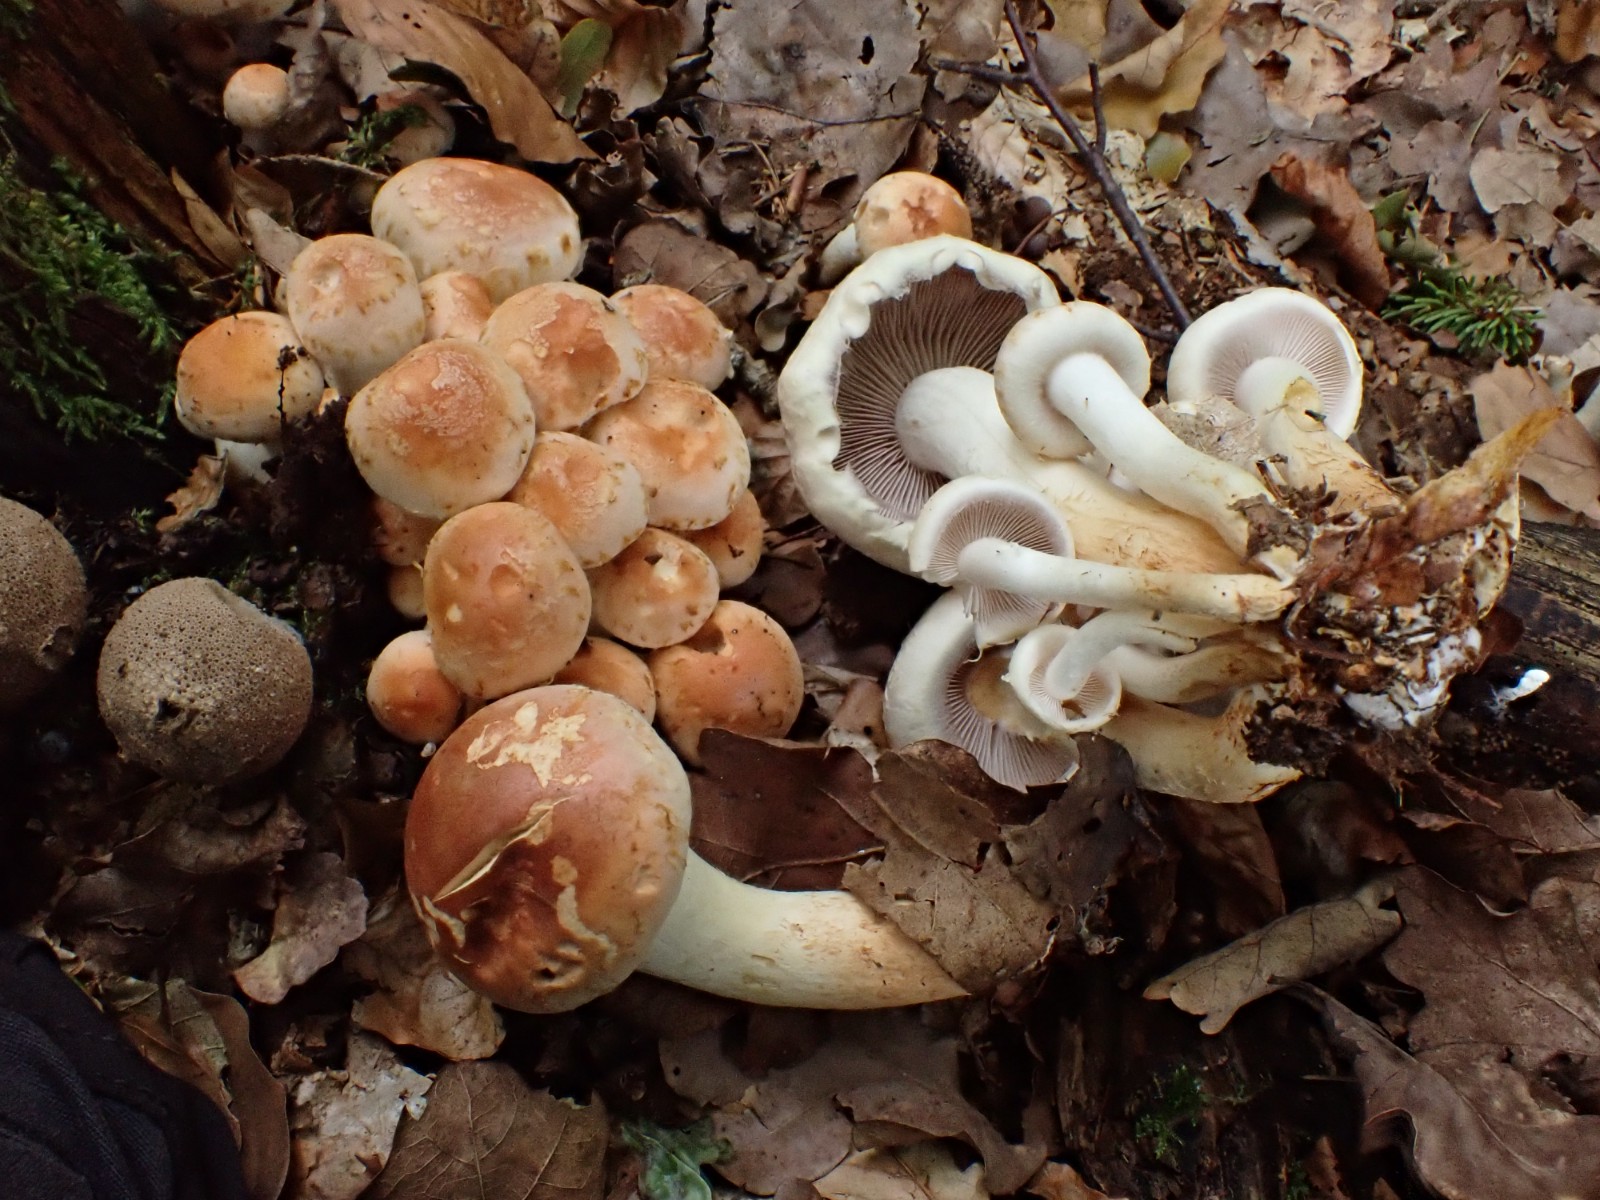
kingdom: Fungi
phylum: Basidiomycota
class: Agaricomycetes
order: Agaricales
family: Strophariaceae
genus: Hypholoma
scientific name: Hypholoma lateritium
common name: teglrød svovlhat
